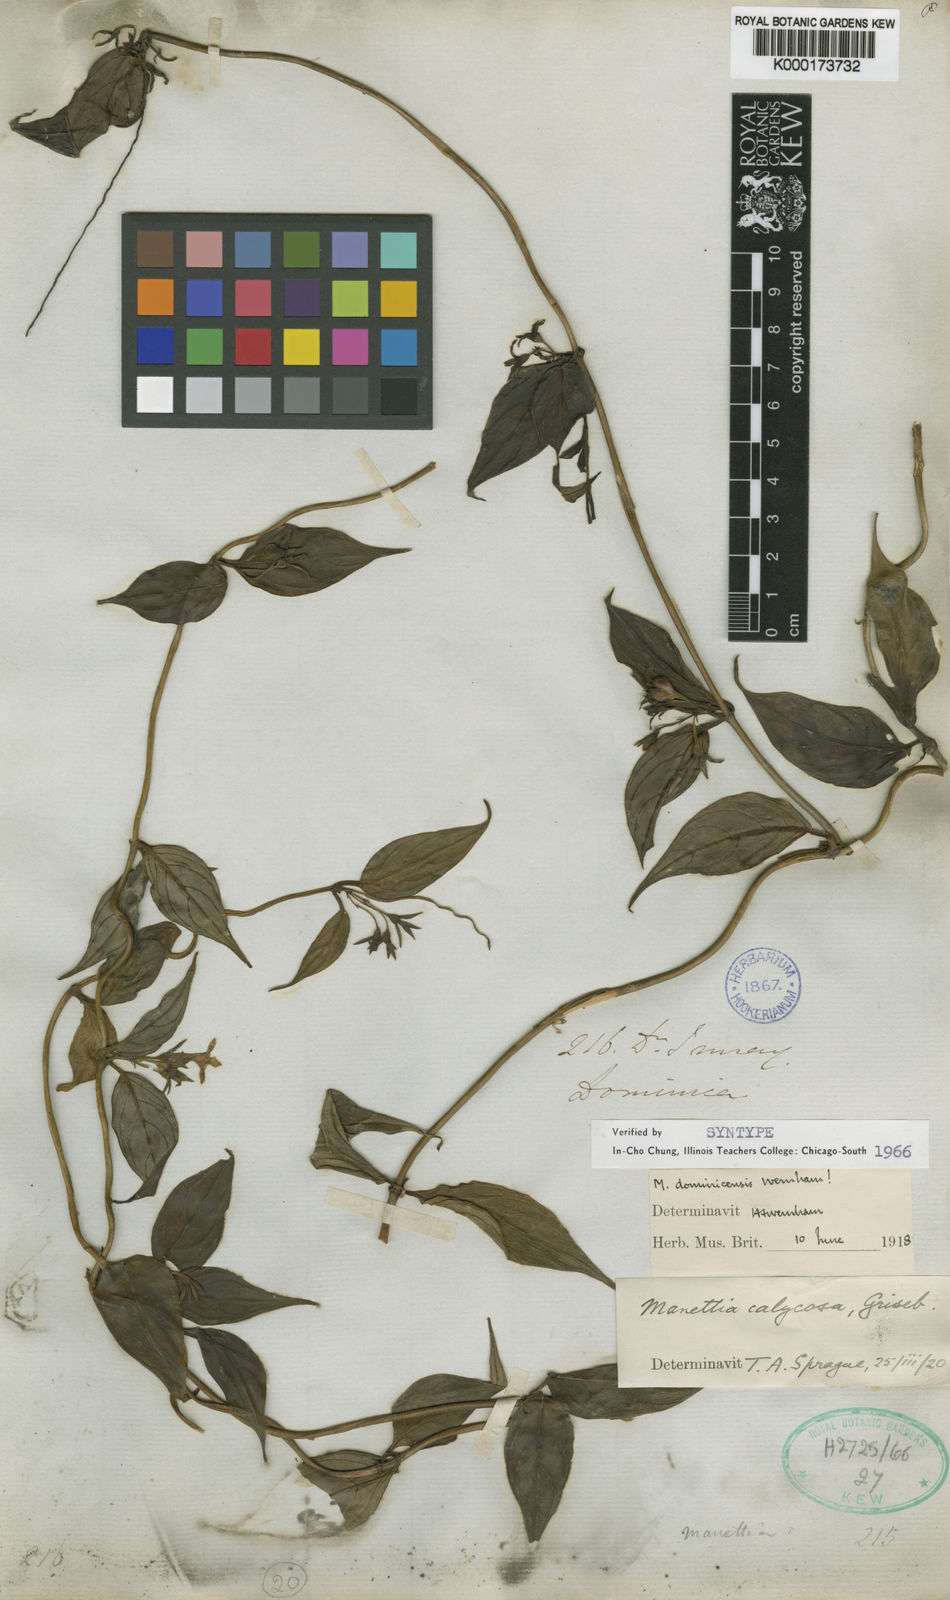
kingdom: Plantae
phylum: Tracheophyta
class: Magnoliopsida
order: Gentianales
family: Rubiaceae
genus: Manettia
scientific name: Manettia dominicensis
